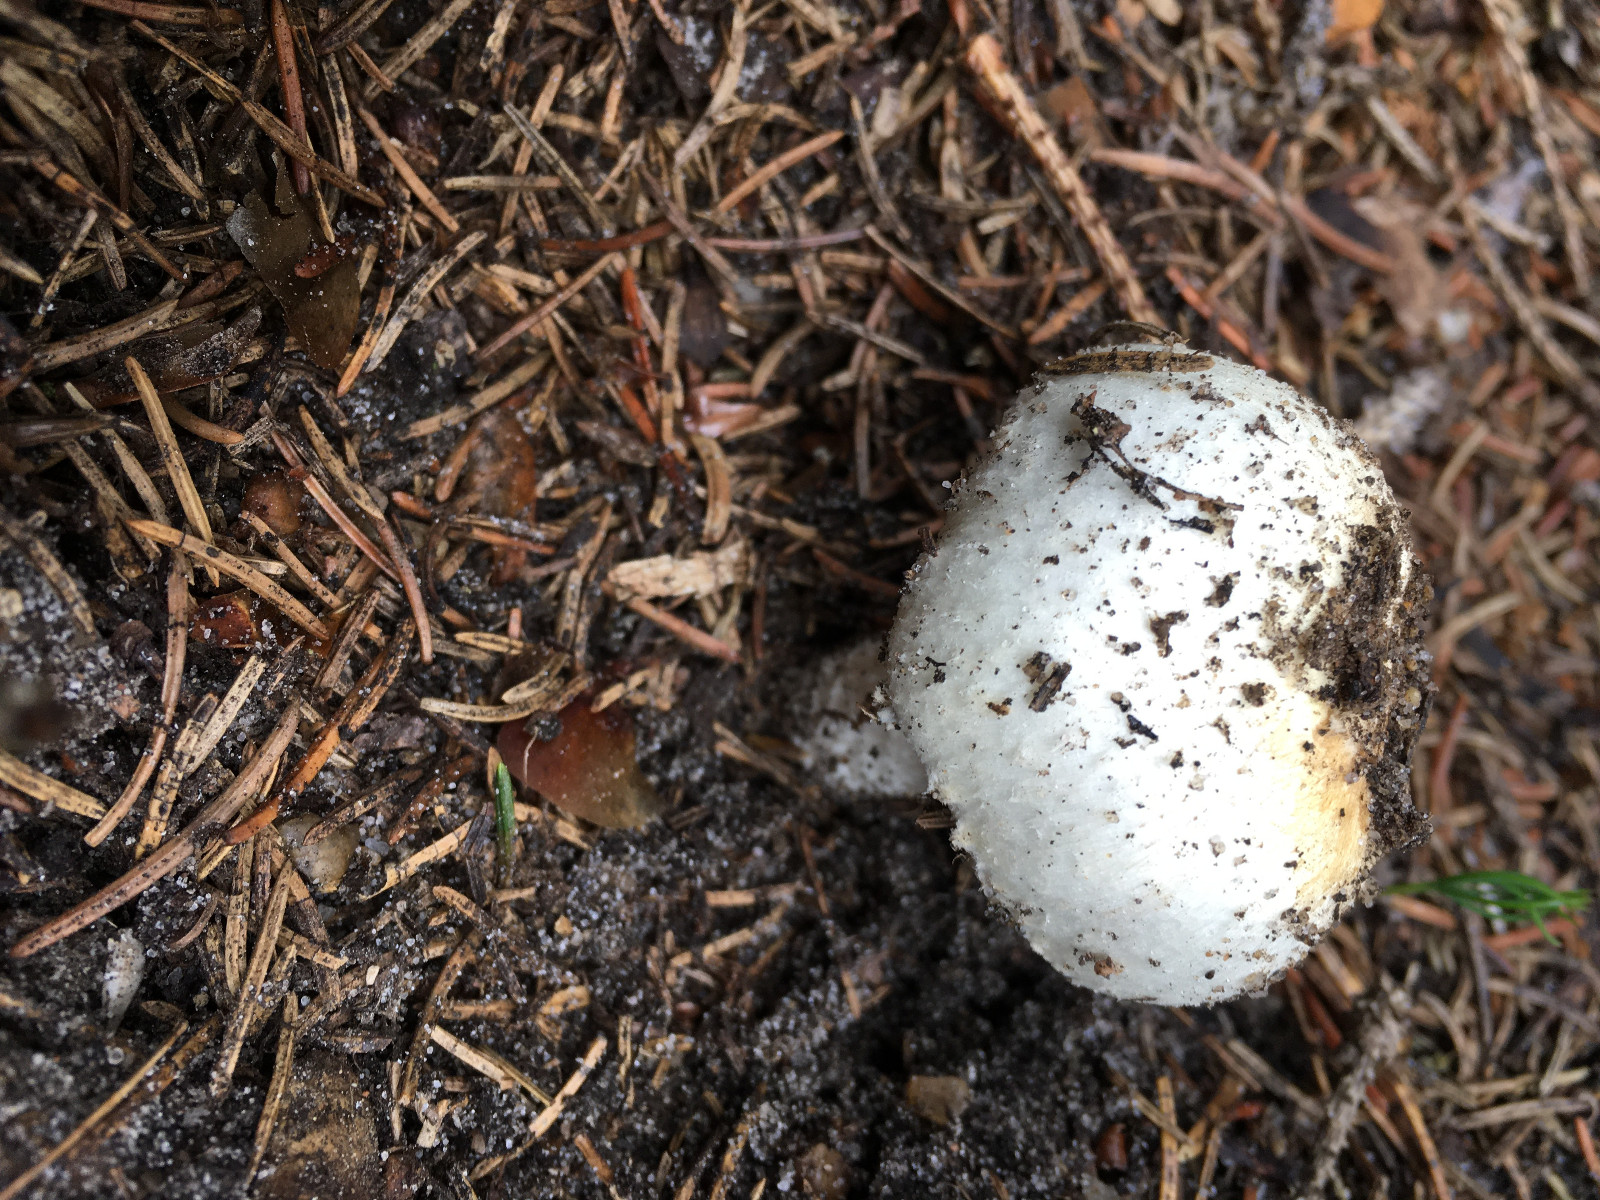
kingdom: Fungi
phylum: Basidiomycota
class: Agaricomycetes
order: Agaricales
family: Agaricaceae
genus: Agaricus
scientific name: Agaricus
